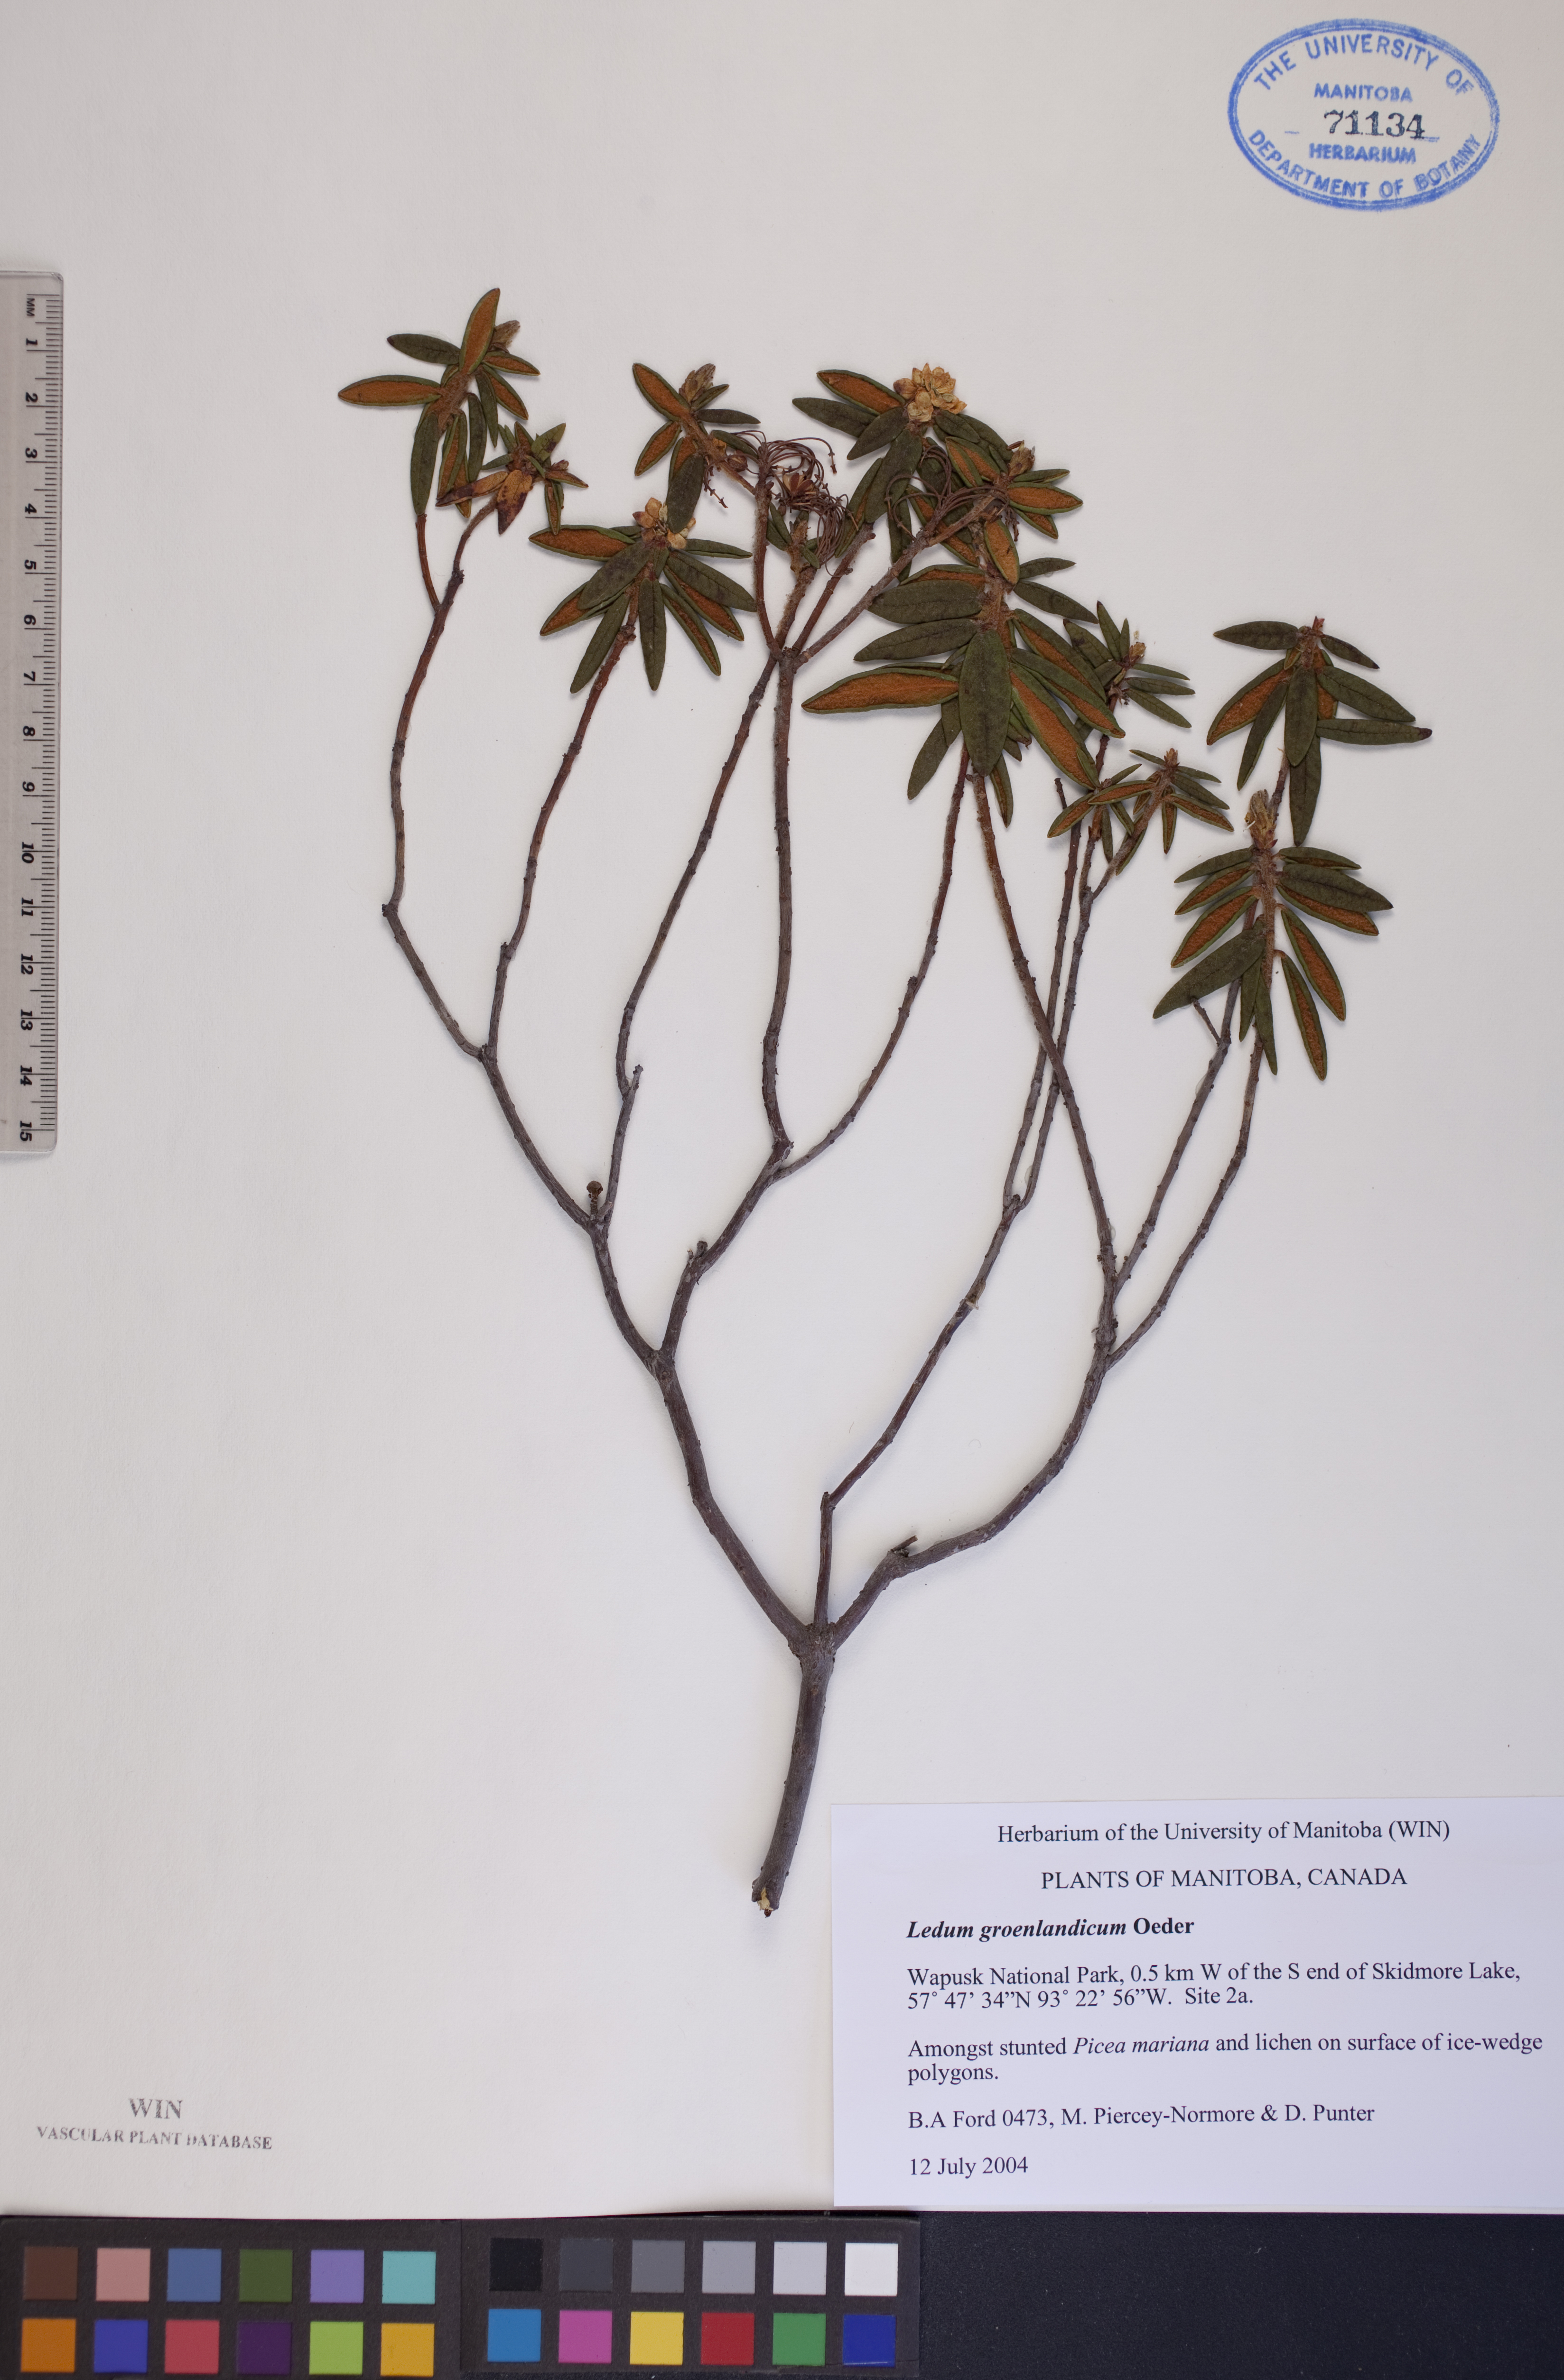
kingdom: Plantae
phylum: Tracheophyta
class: Magnoliopsida
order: Ericales
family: Ericaceae
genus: Rhododendron
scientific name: Rhododendron groenlandicum
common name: Bog labrador tea
